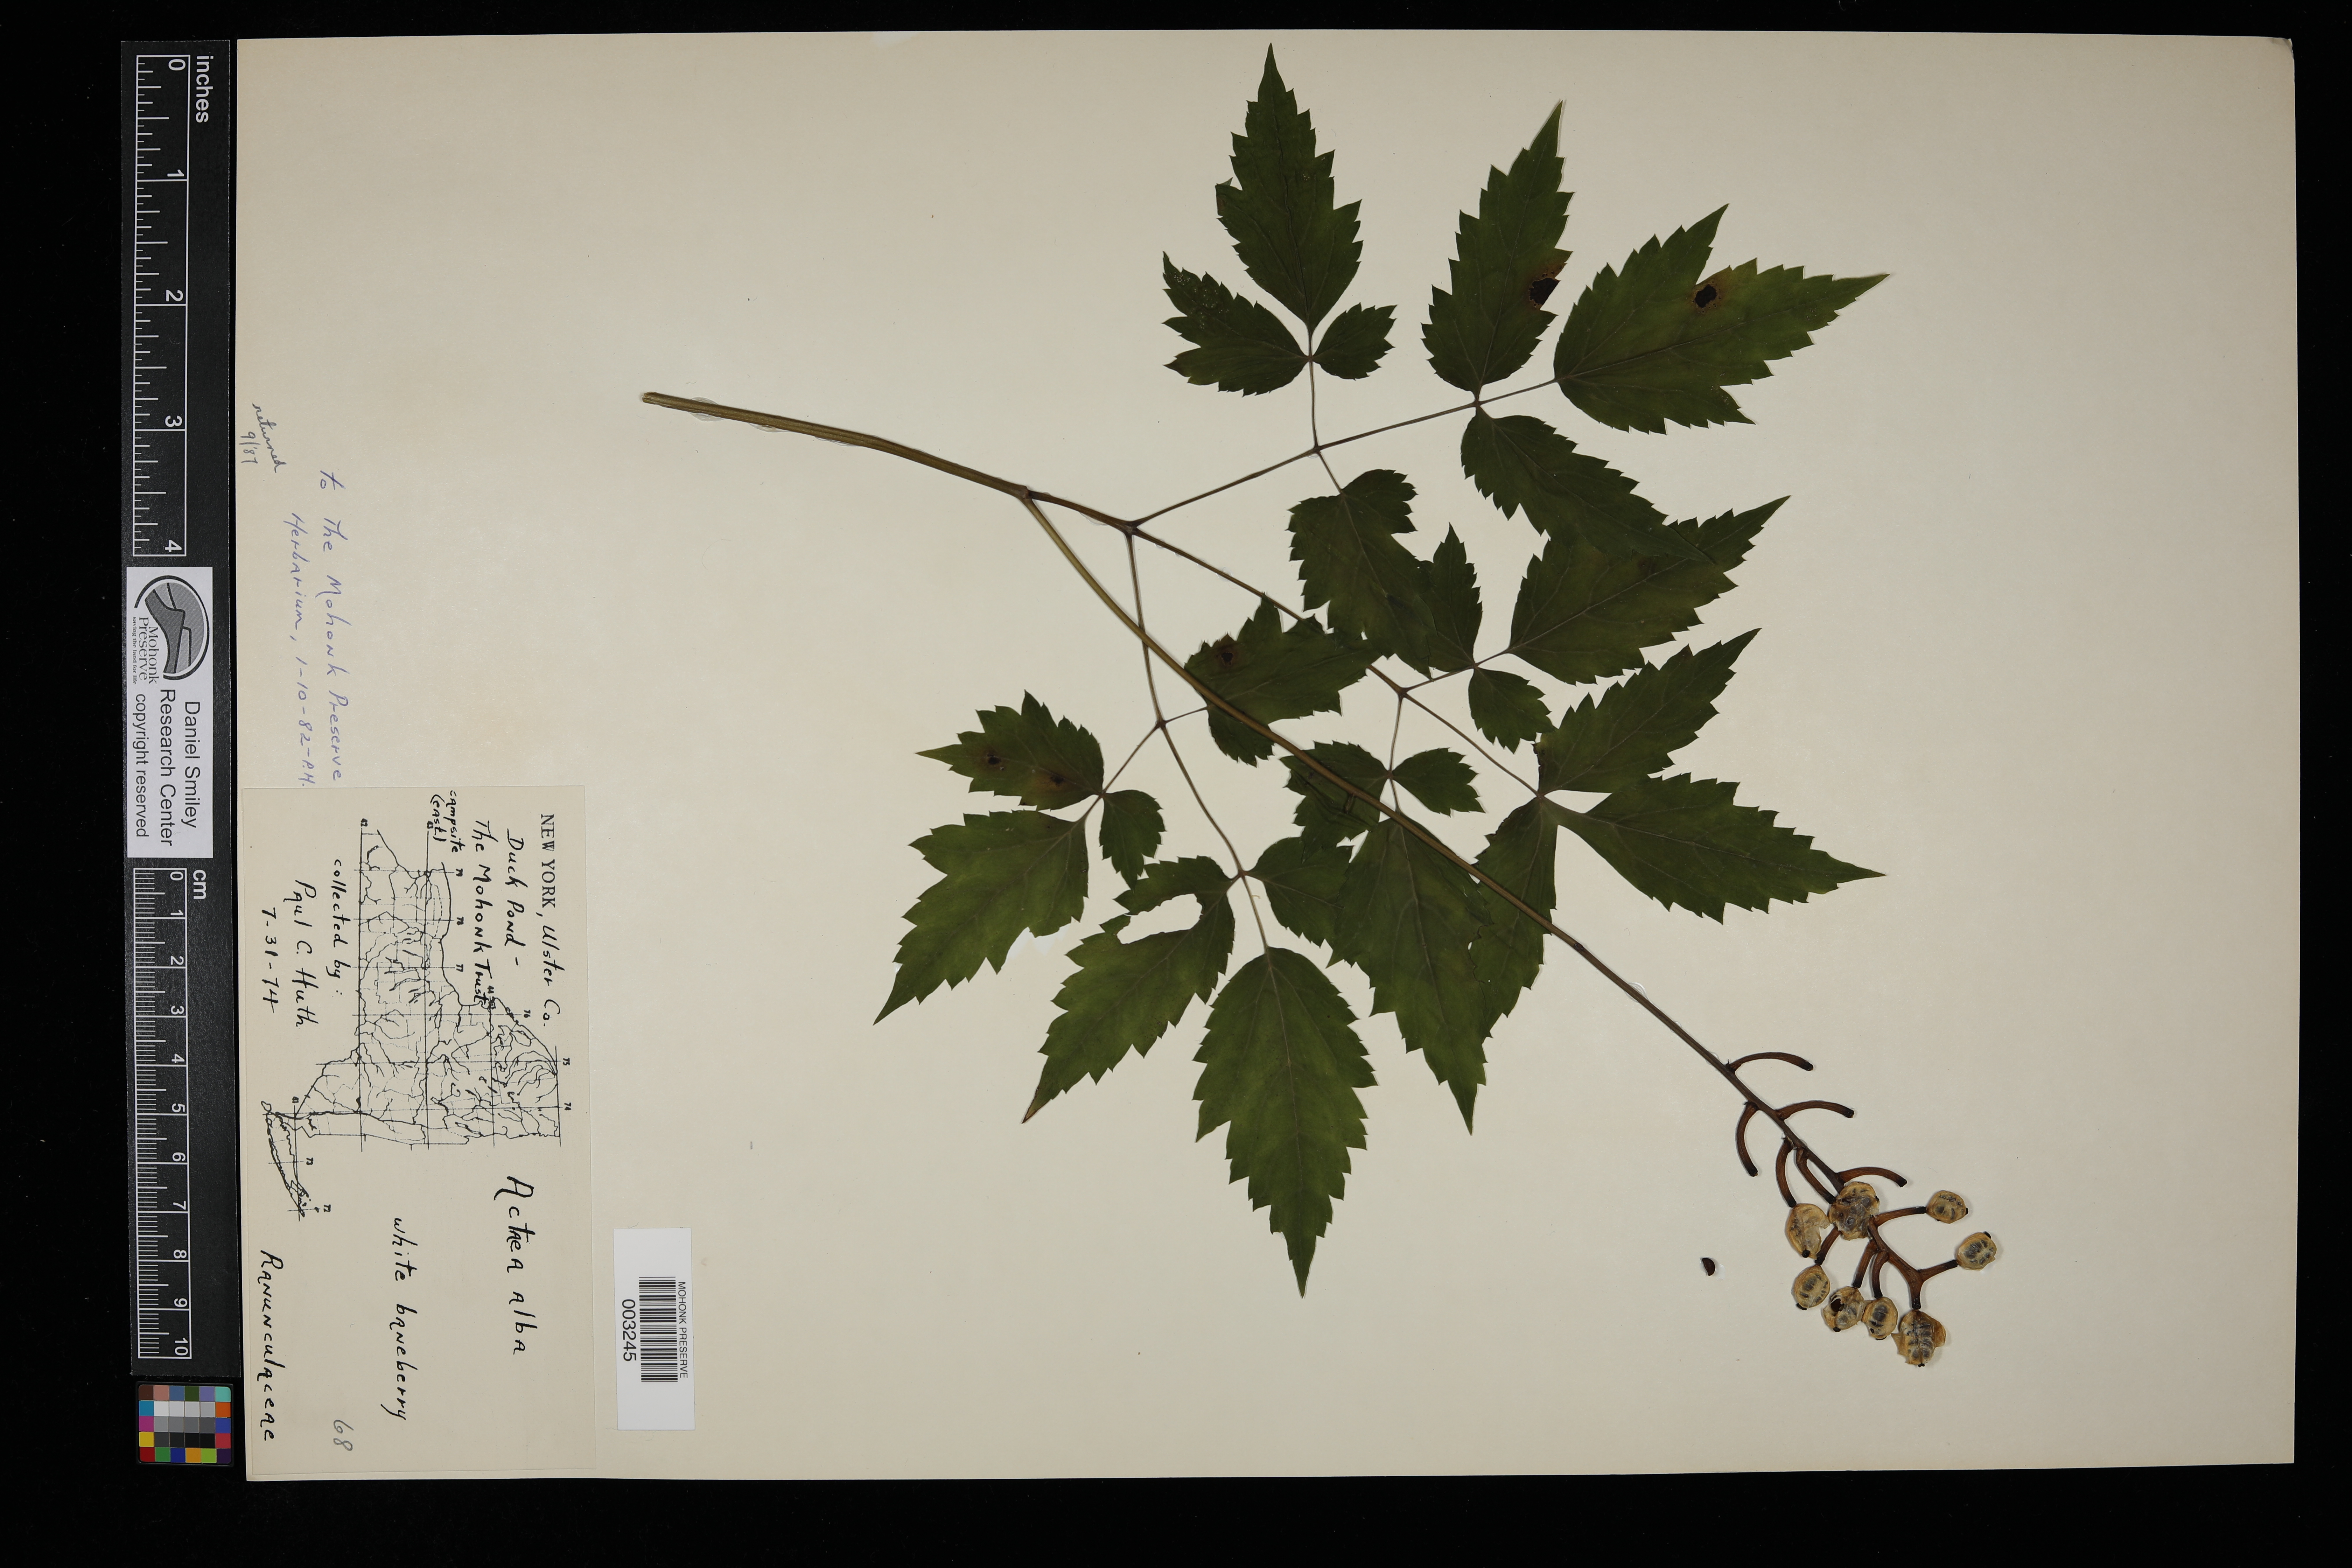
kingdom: Plantae
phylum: Tracheophyta
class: Magnoliopsida
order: Ranunculales
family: Ranunculaceae
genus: Actaea
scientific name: Actaea rubra
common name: Red baneberry
